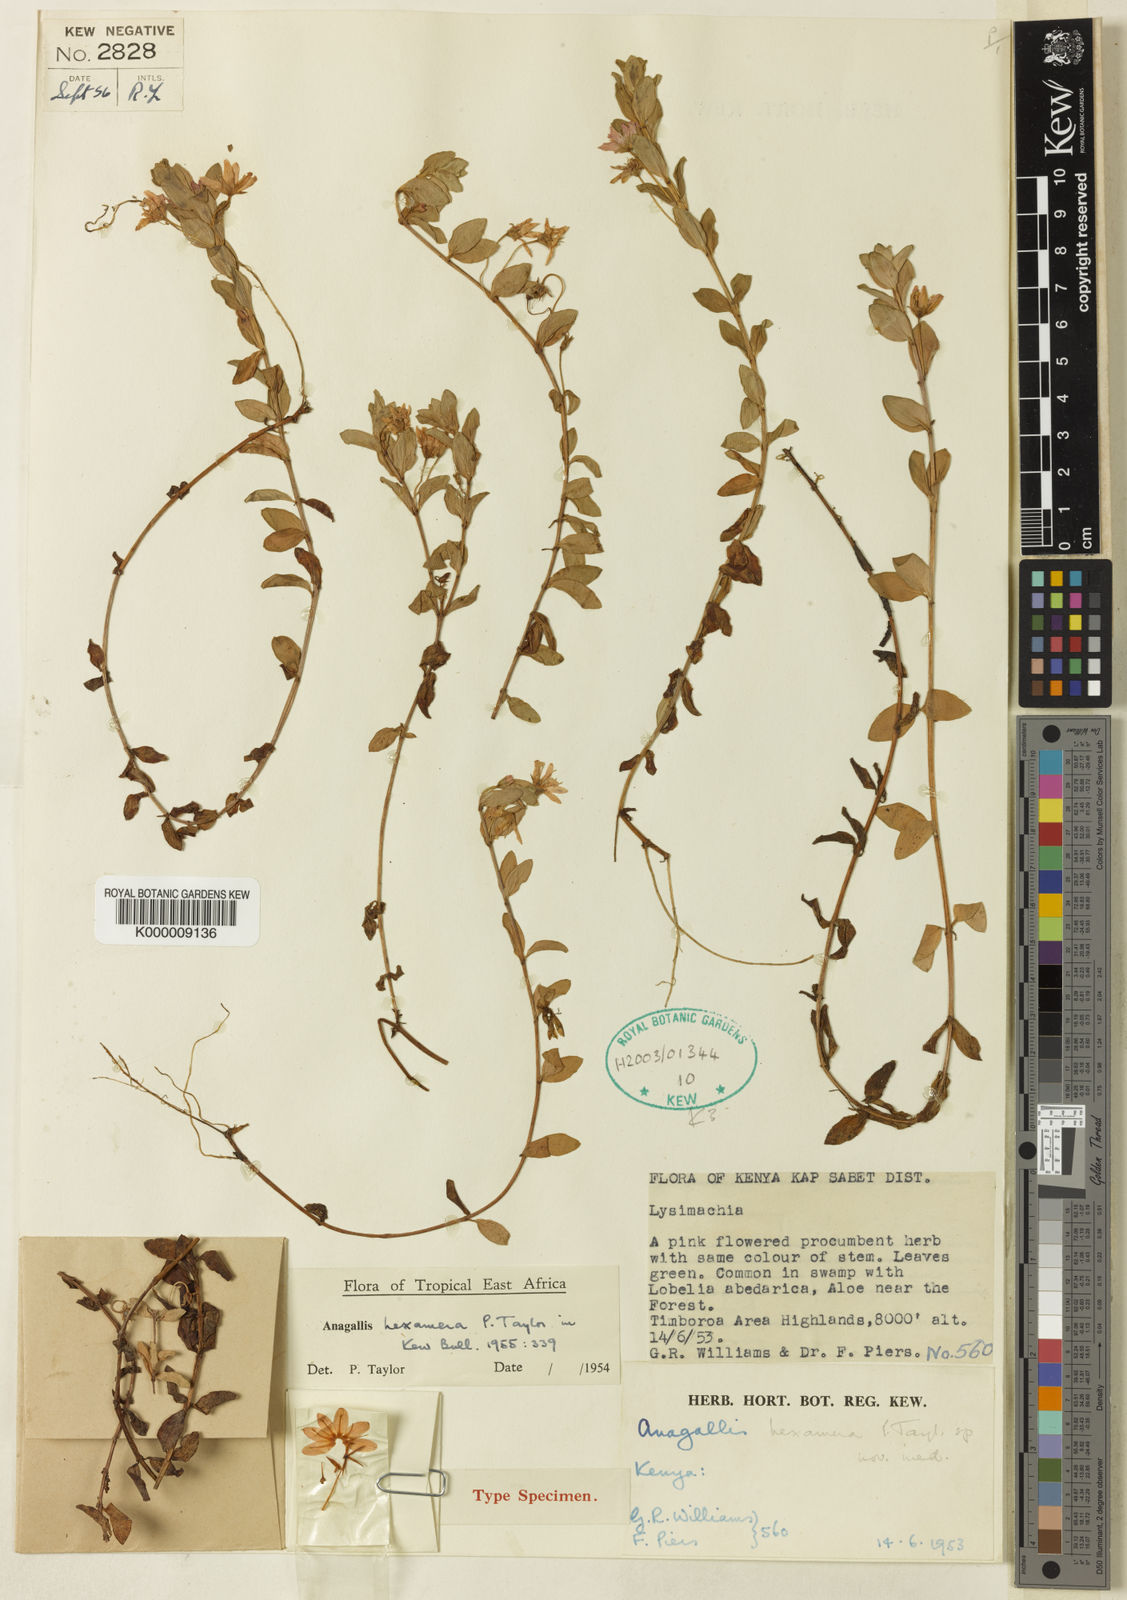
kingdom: Plantae
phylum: Tracheophyta
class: Magnoliopsida
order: Ericales
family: Primulaceae
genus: Lysimachia
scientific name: Lysimachia hexamera
